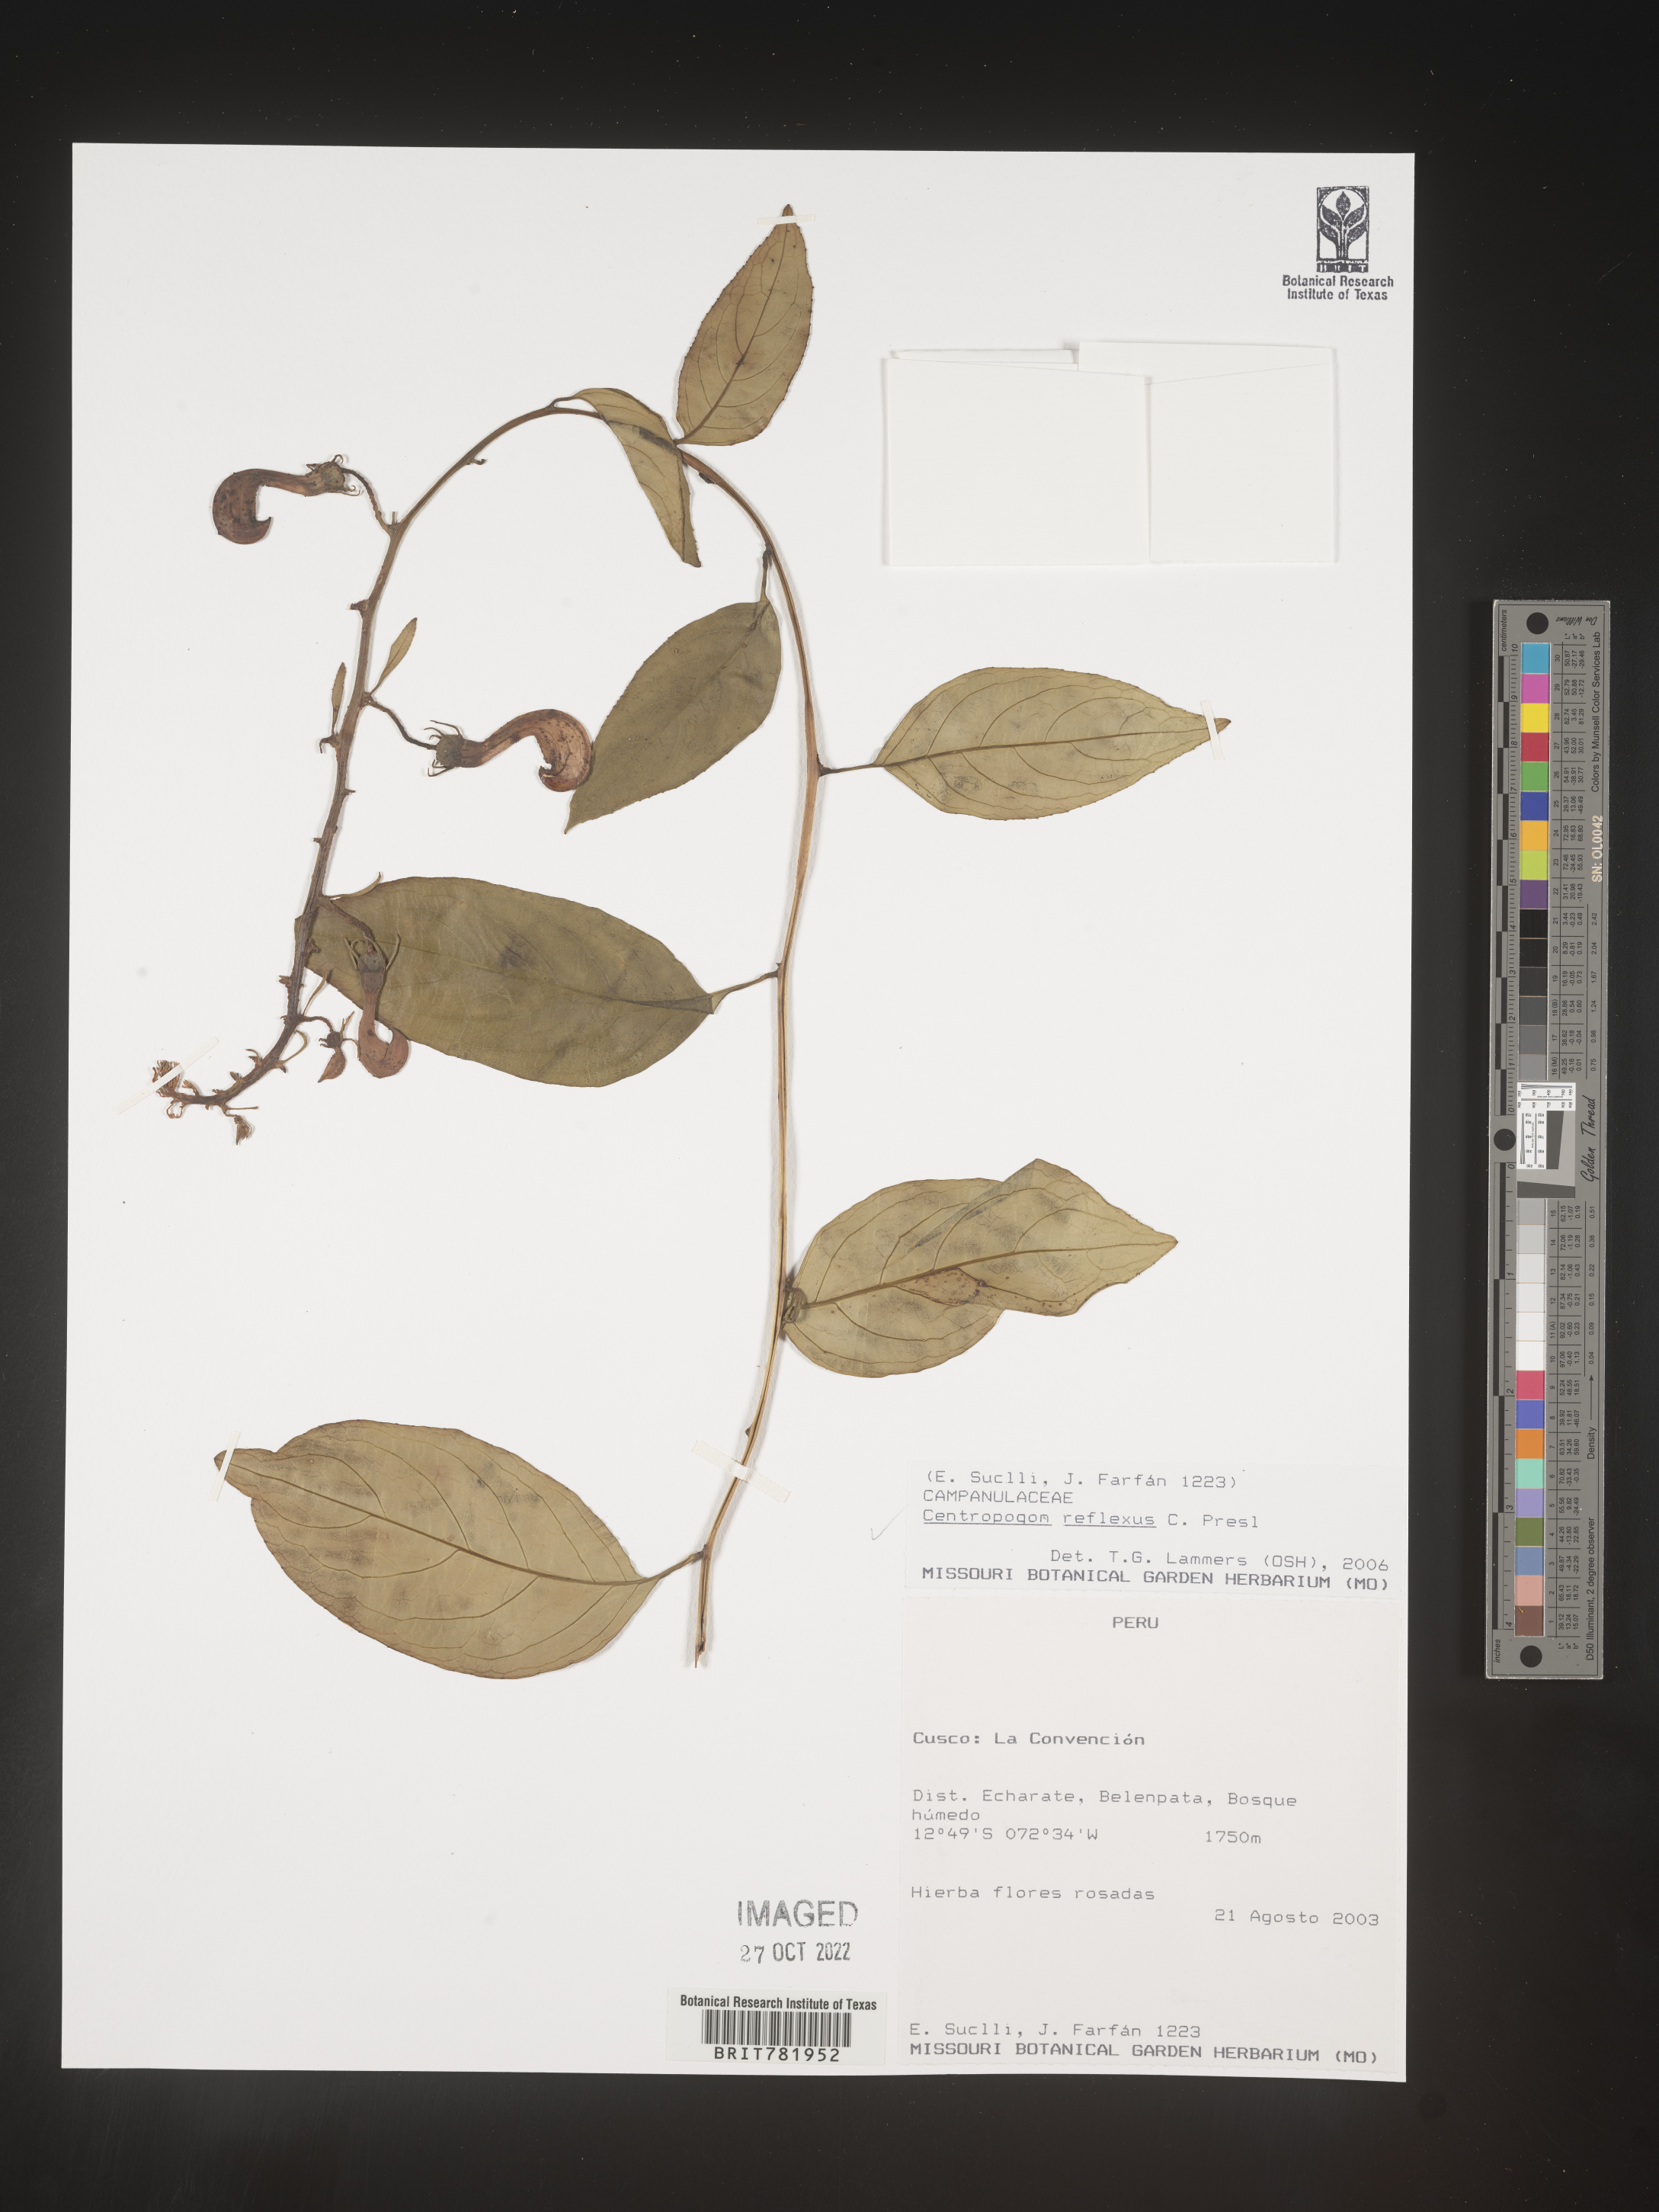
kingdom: Plantae
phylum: Tracheophyta
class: Magnoliopsida
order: Asterales
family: Campanulaceae
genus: Centropogon
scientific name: Centropogon
